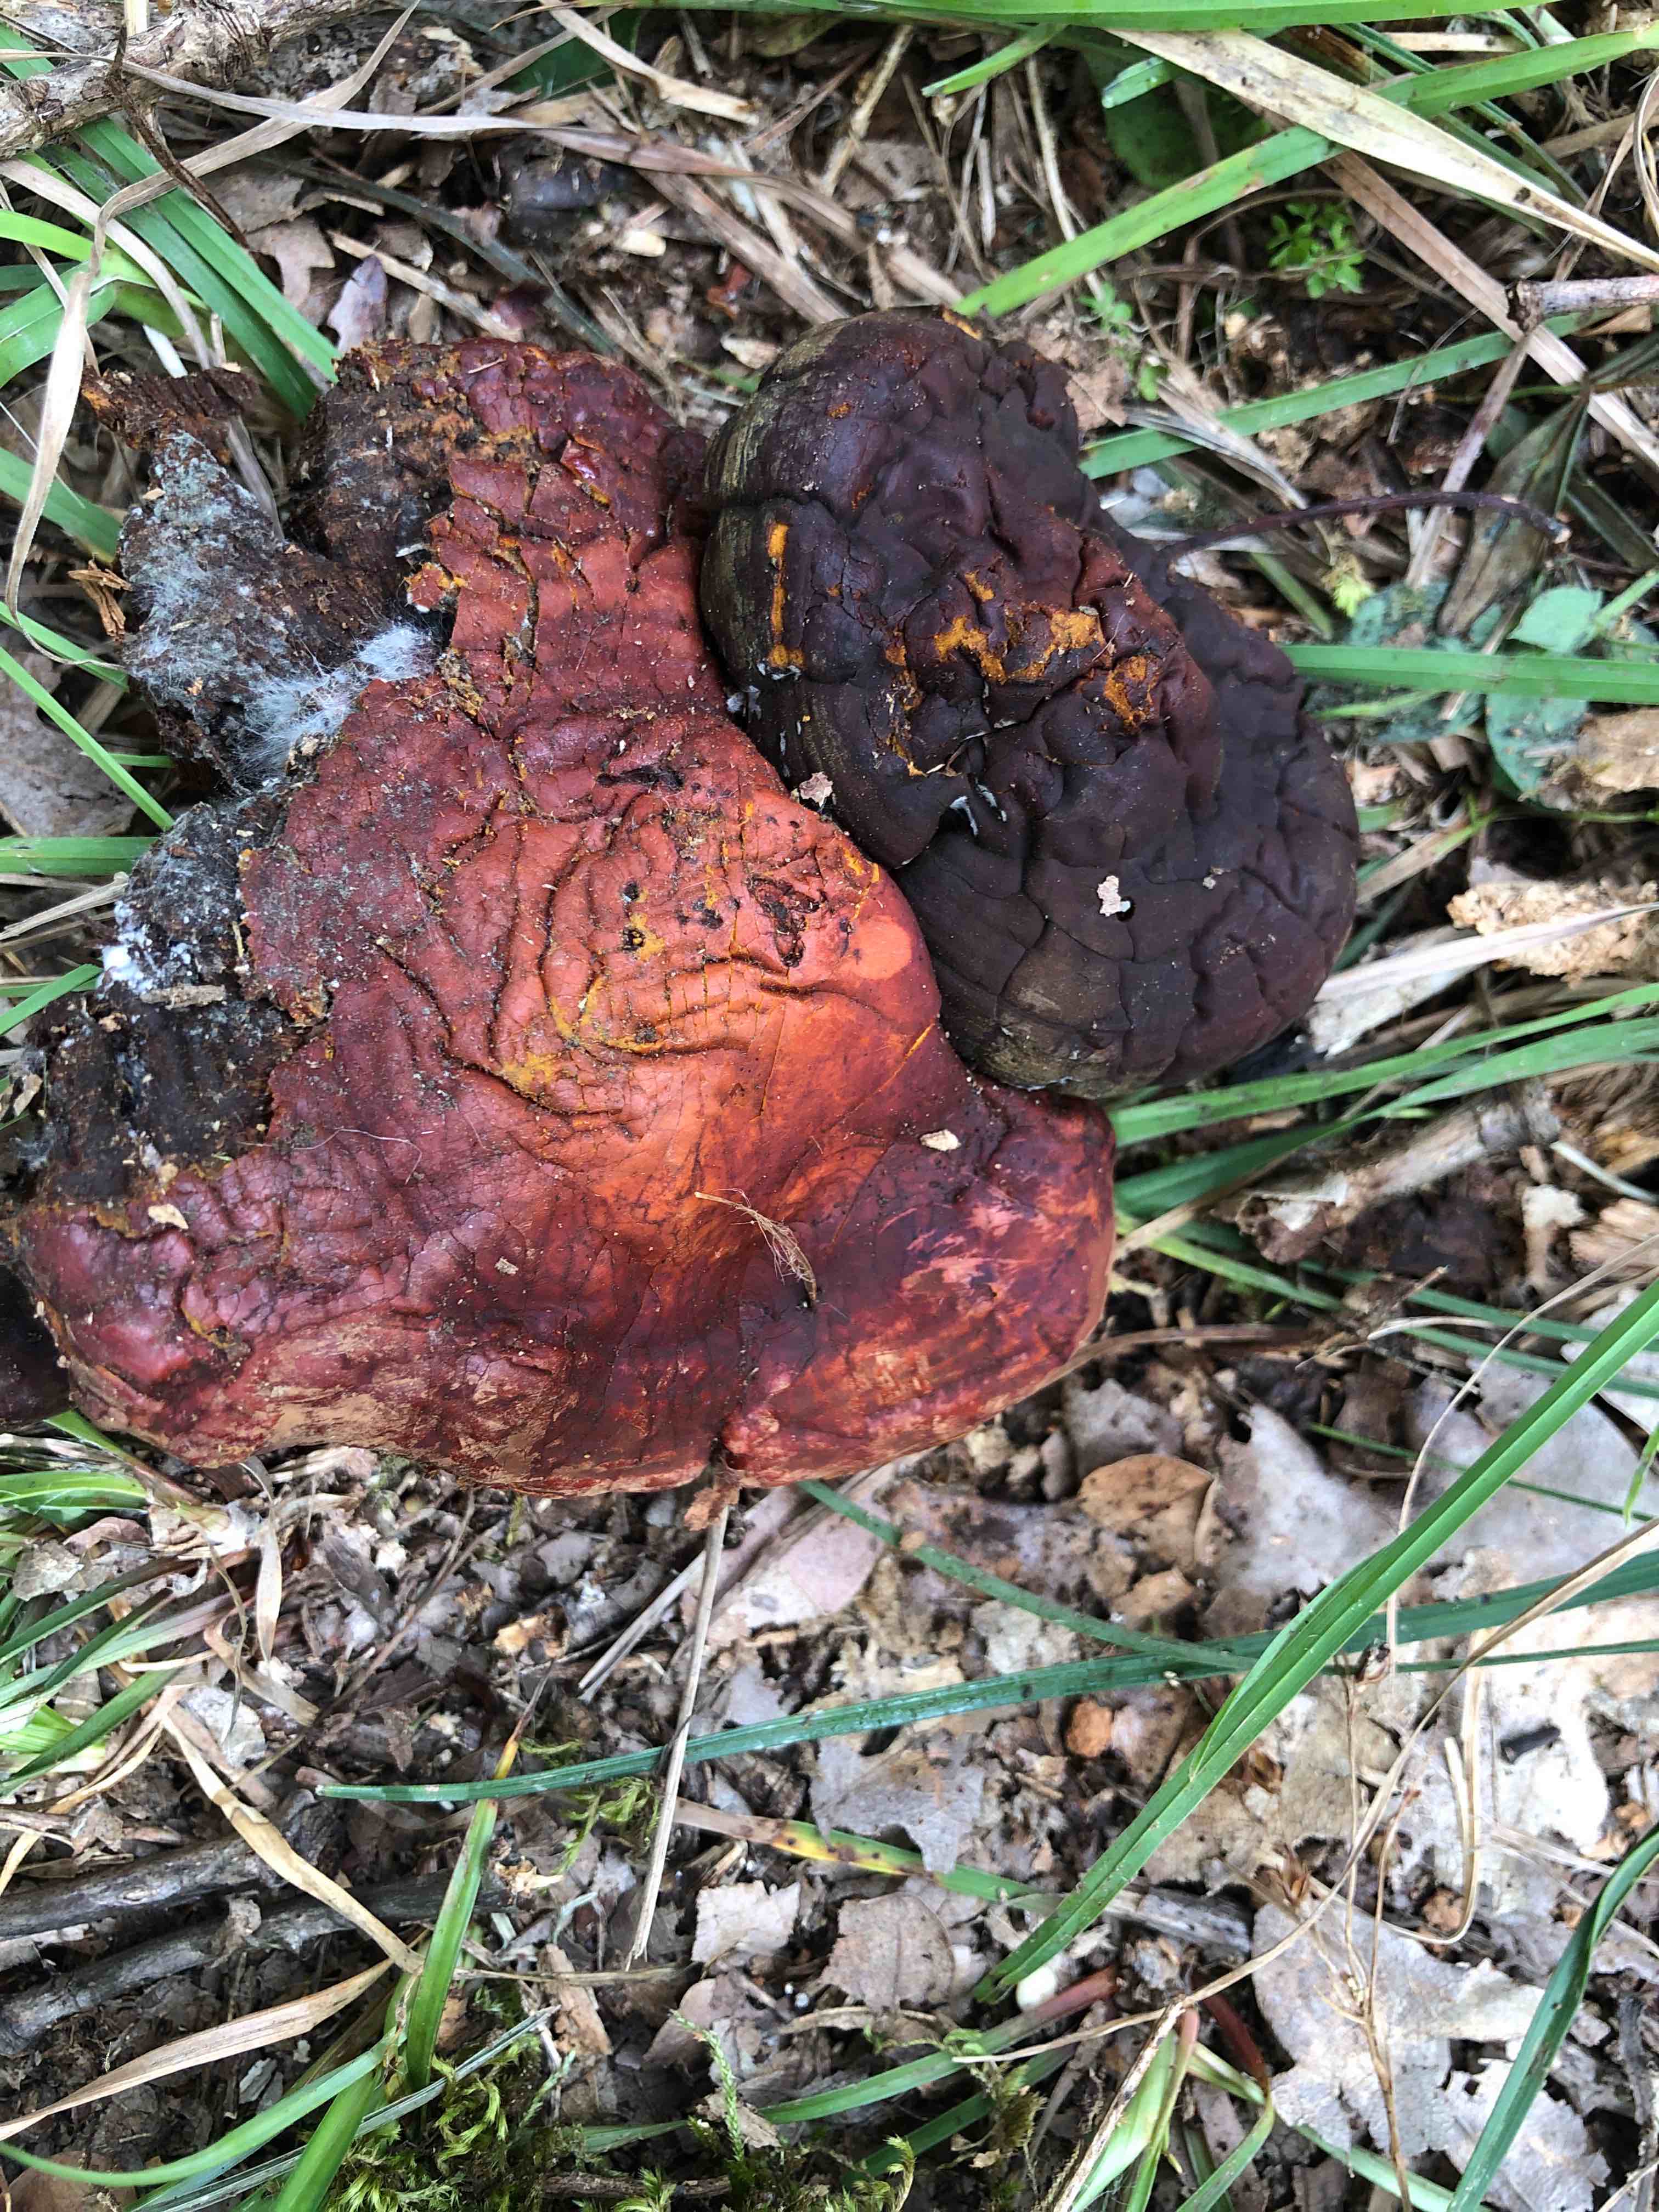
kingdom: Fungi
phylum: Basidiomycota
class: Agaricomycetes
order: Polyporales
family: Polyporaceae
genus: Ganoderma
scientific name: Ganoderma lucidum
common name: skinnende lakporesvamp
